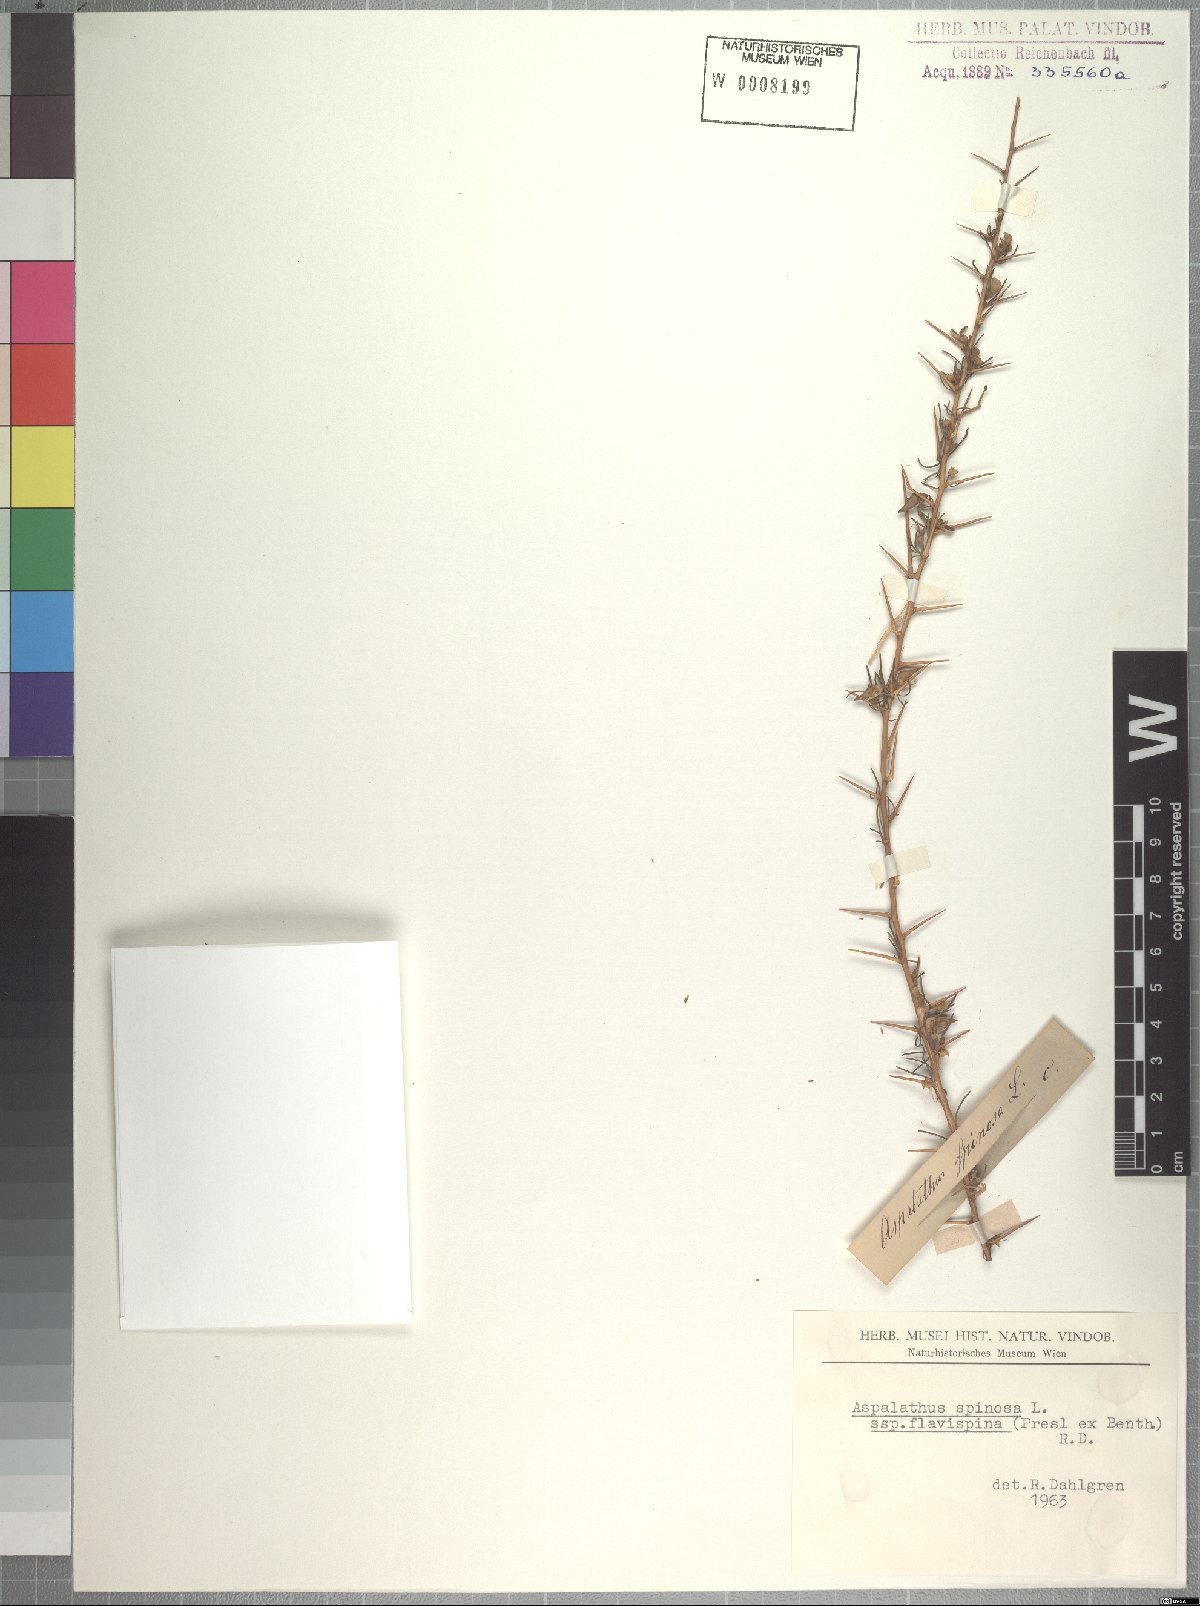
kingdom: Plantae
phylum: Tracheophyta
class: Magnoliopsida
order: Fabales
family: Fabaceae
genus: Aspalathus
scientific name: Aspalathus spinosa
